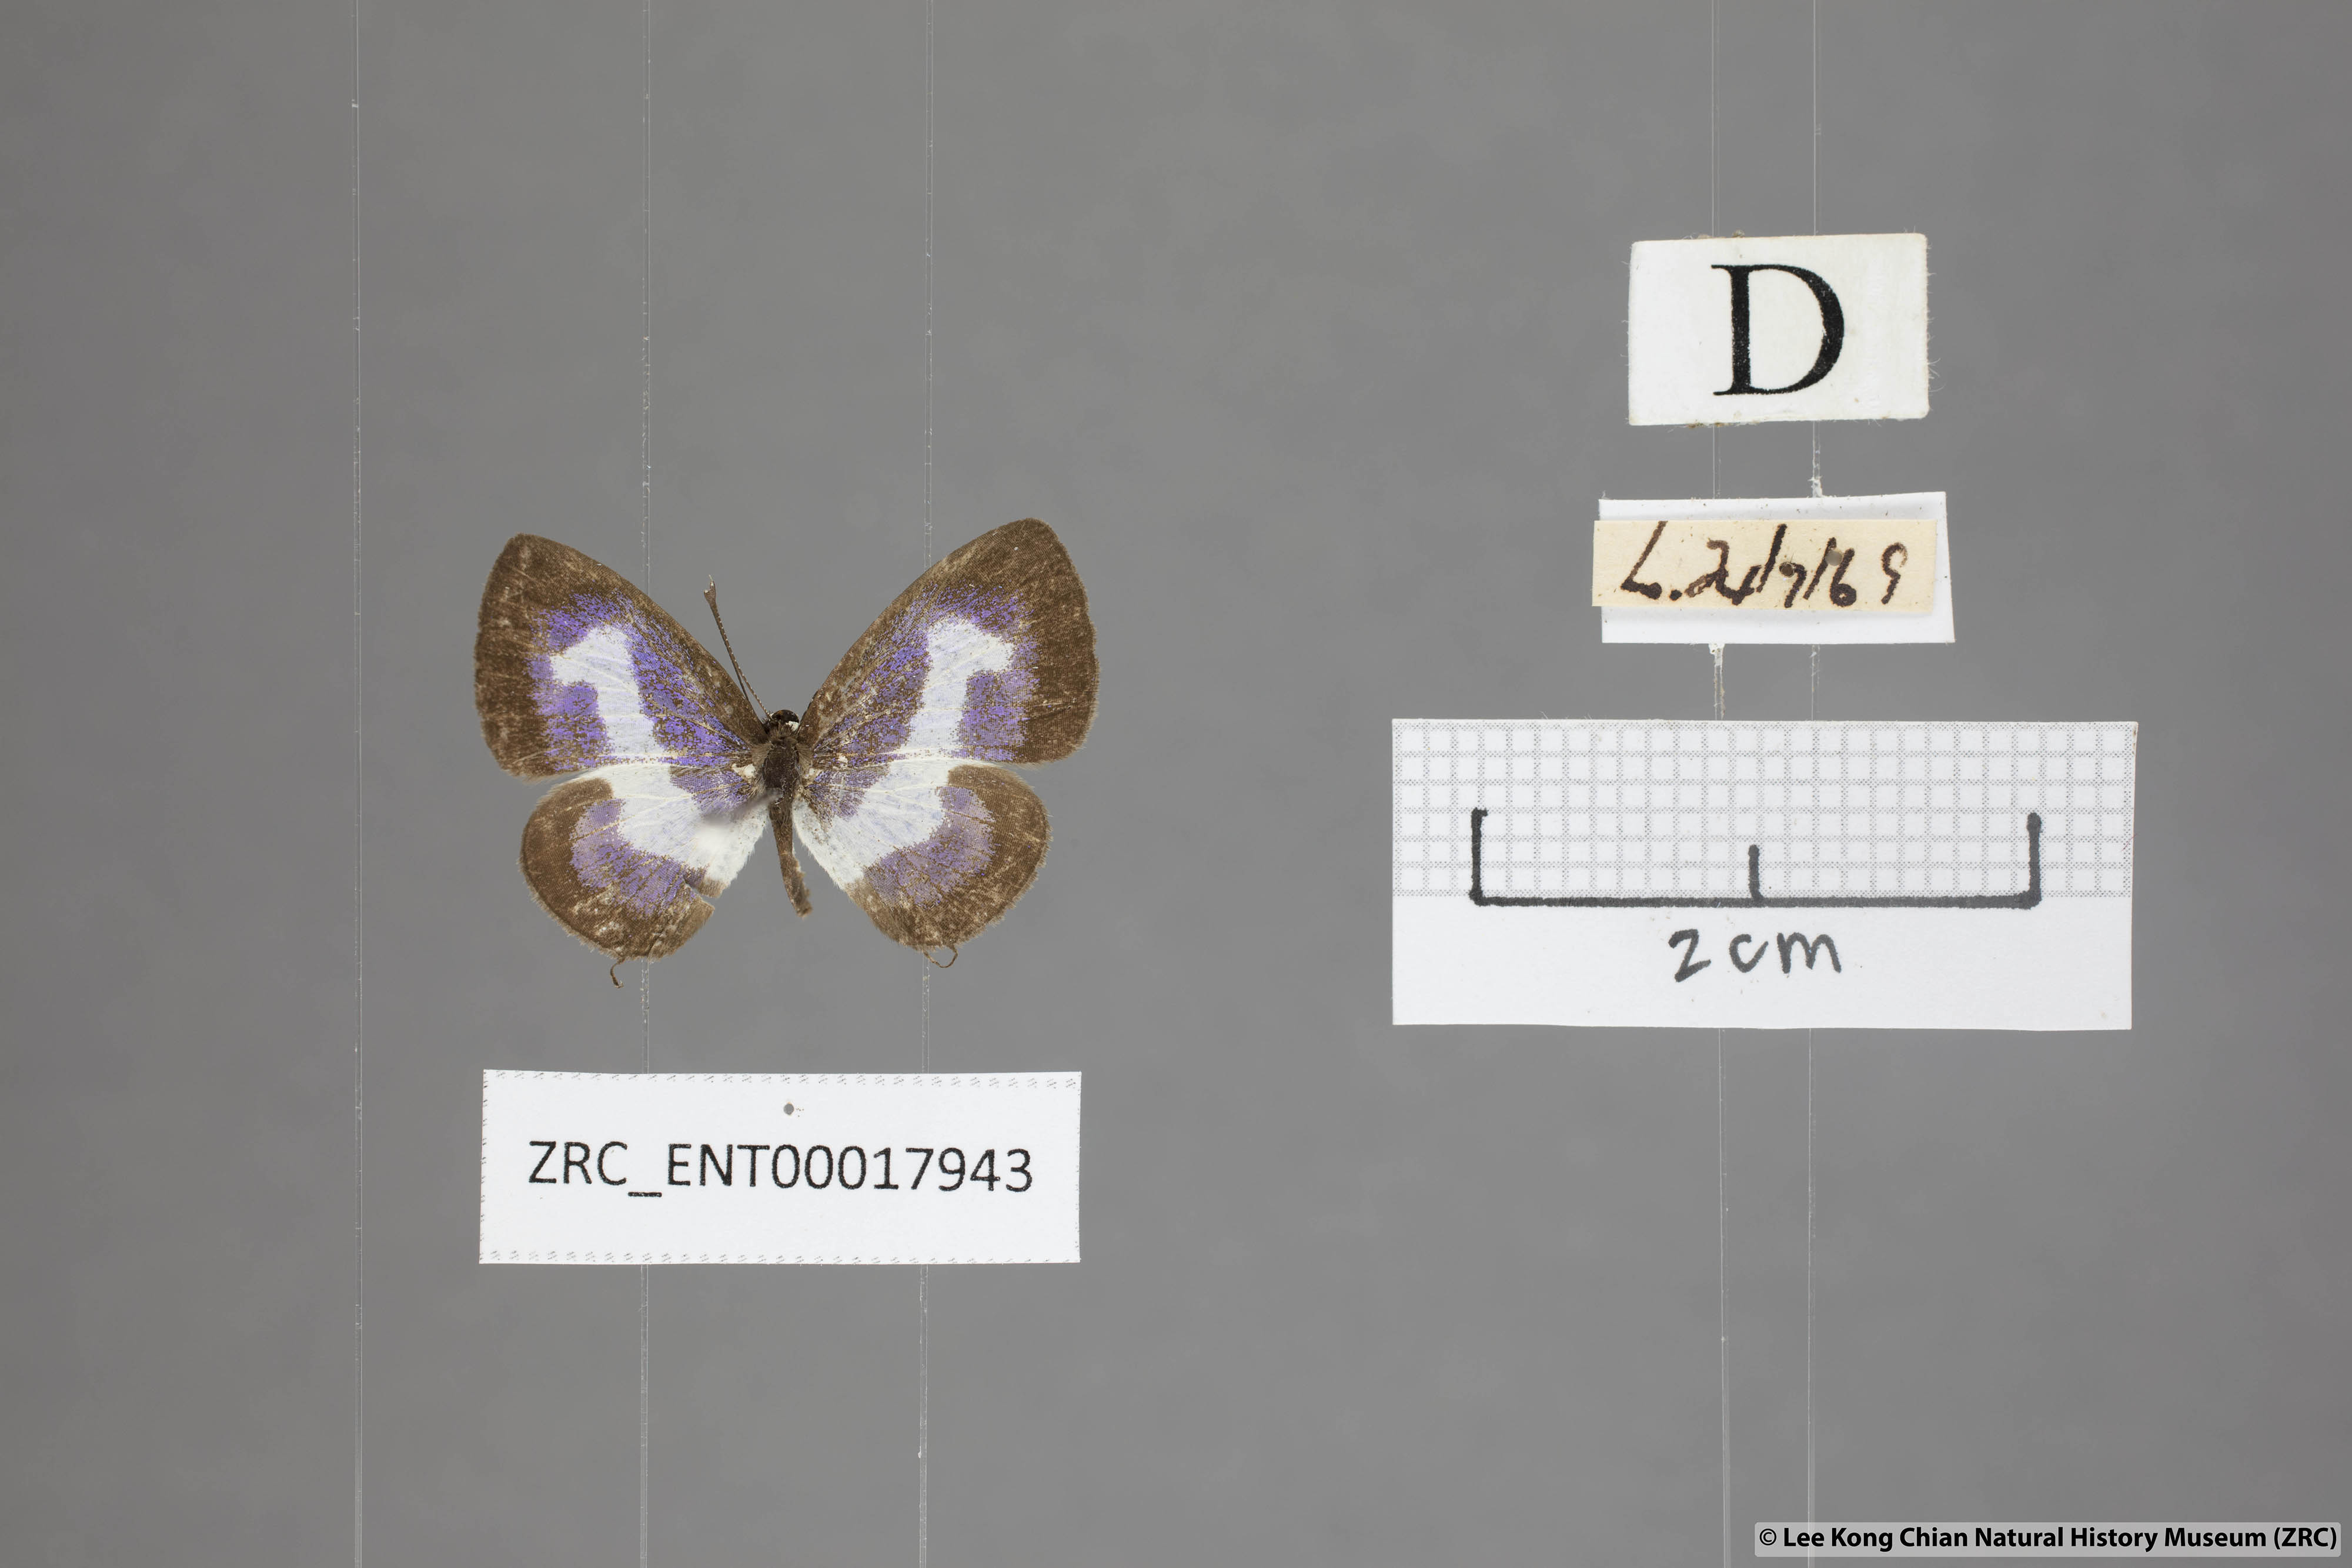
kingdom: Animalia
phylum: Arthropoda
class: Insecta
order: Lepidoptera
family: Lycaenidae
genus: Discolampa
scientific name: Discolampa ethion
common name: Banded blue pierrot
